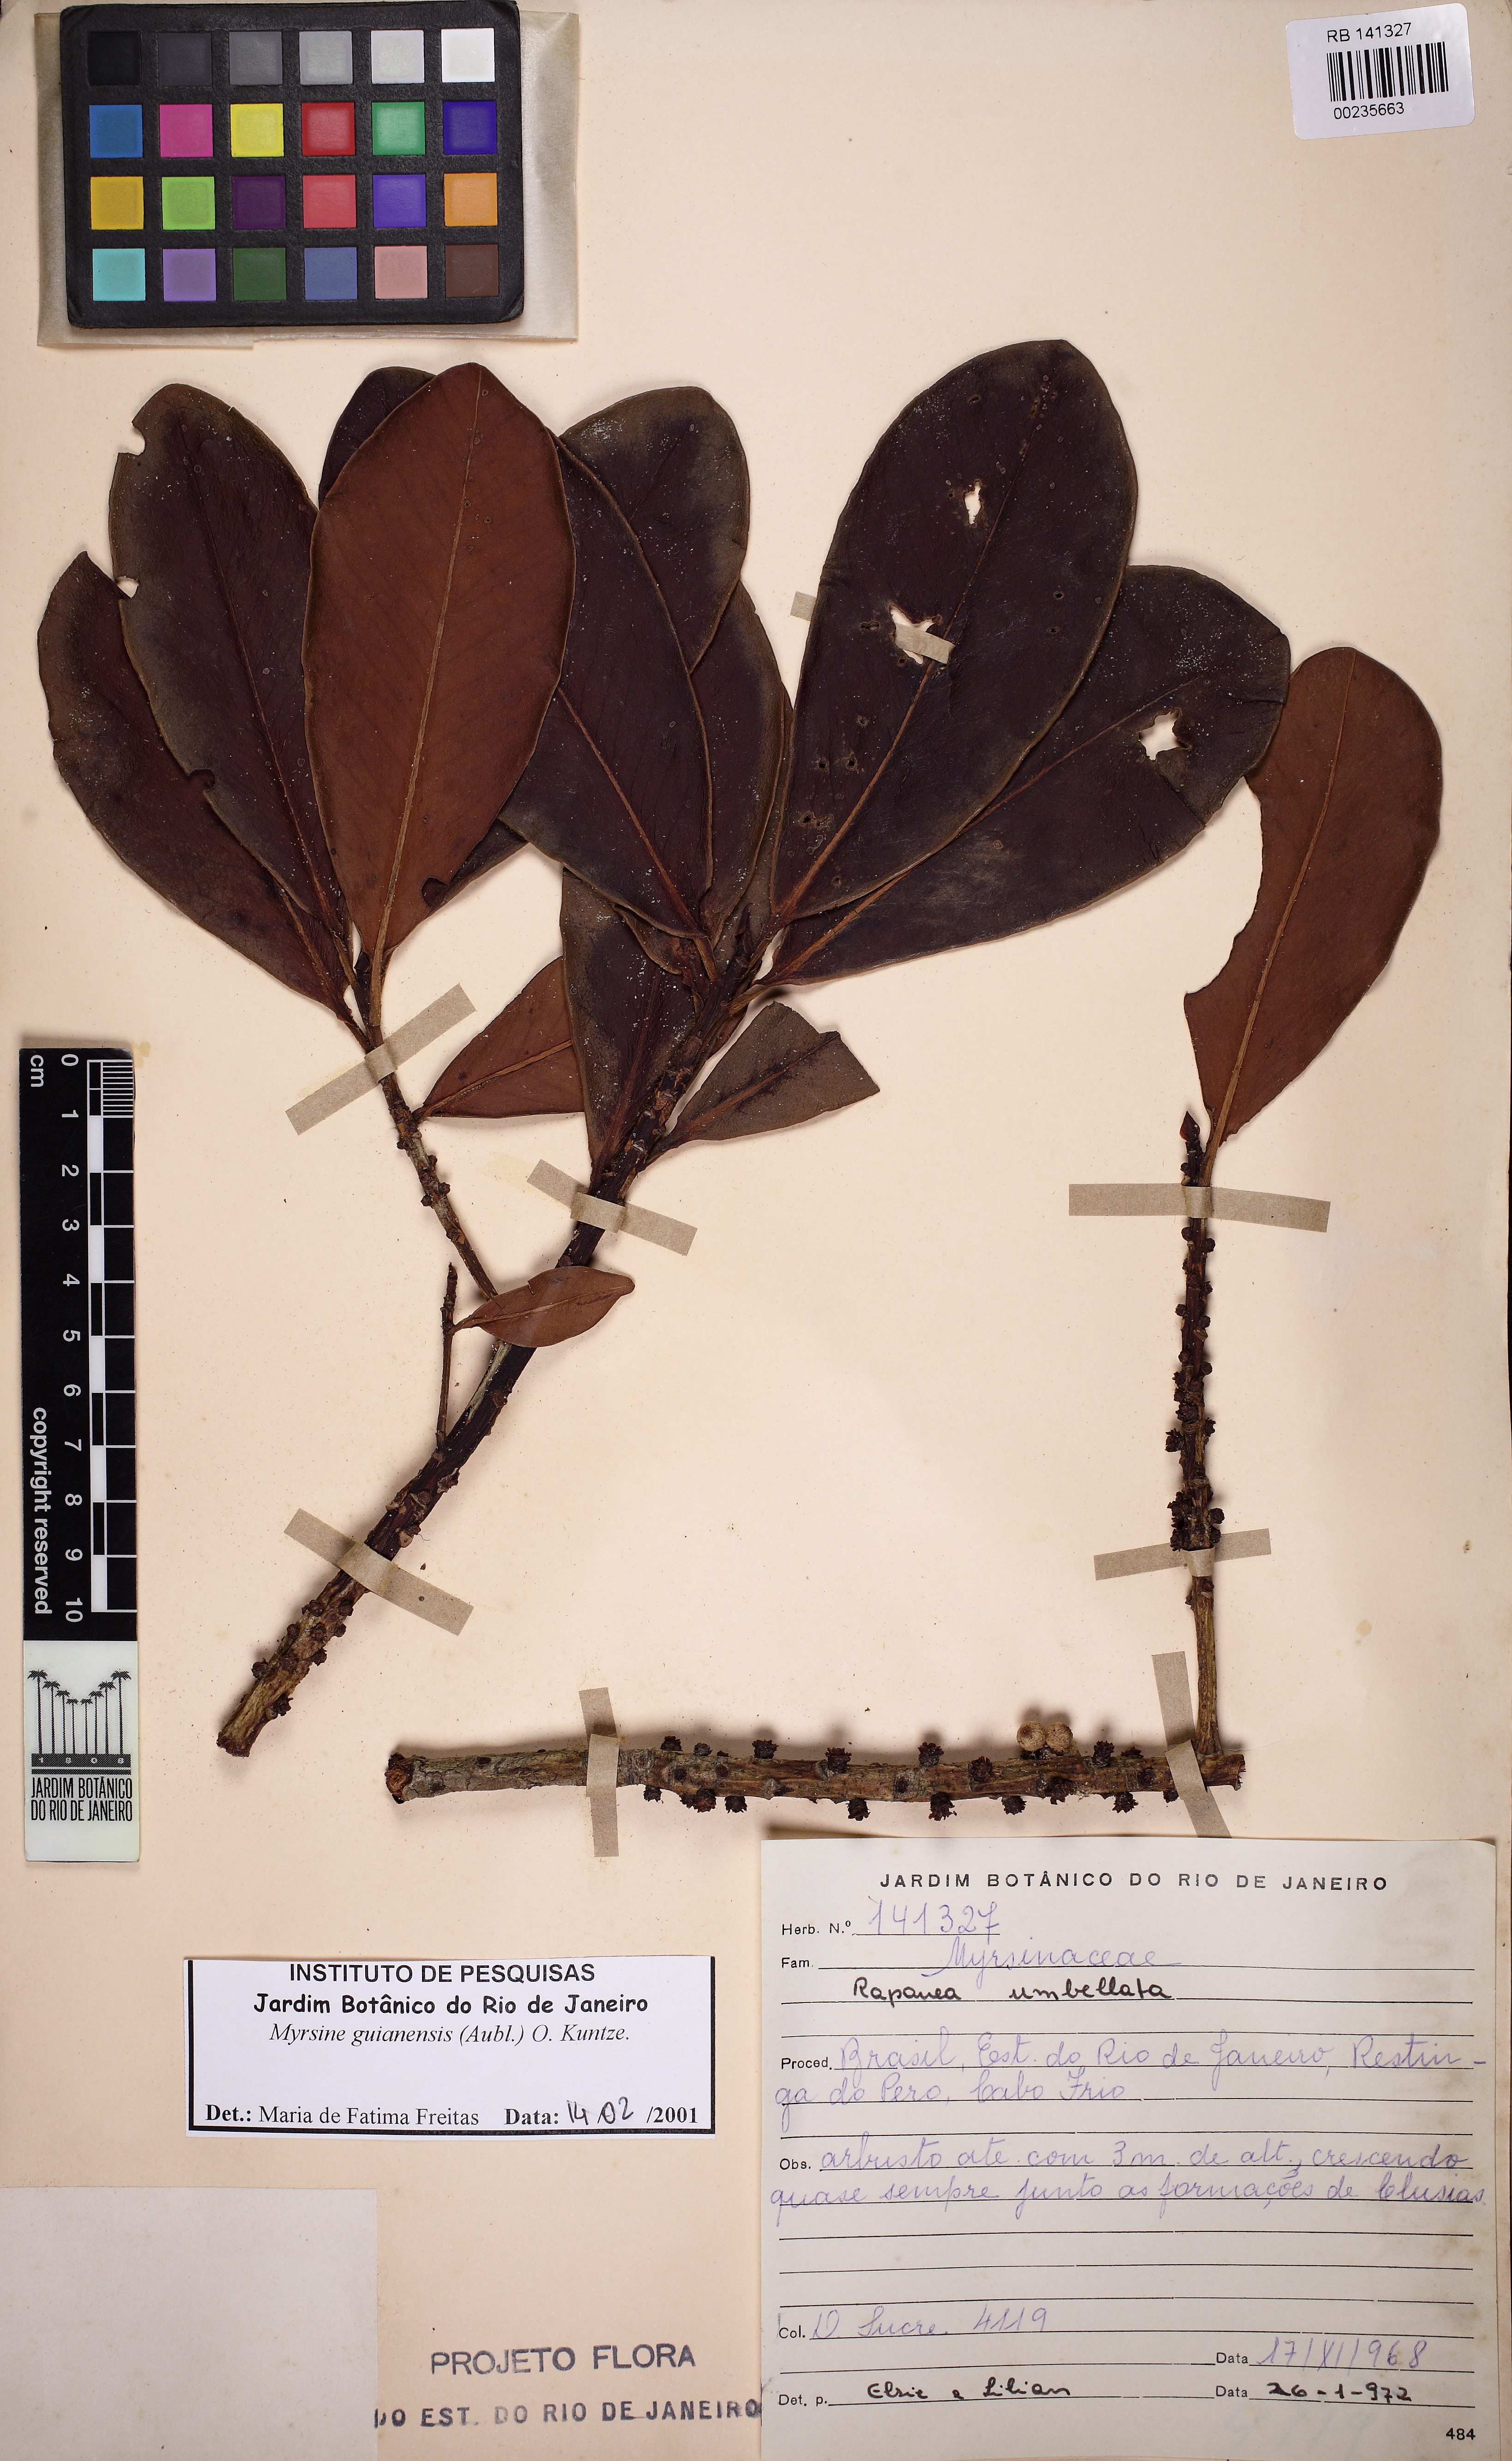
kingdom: Plantae
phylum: Tracheophyta
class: Magnoliopsida
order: Ericales
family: Primulaceae
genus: Myrsine
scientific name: Myrsine guianensis
